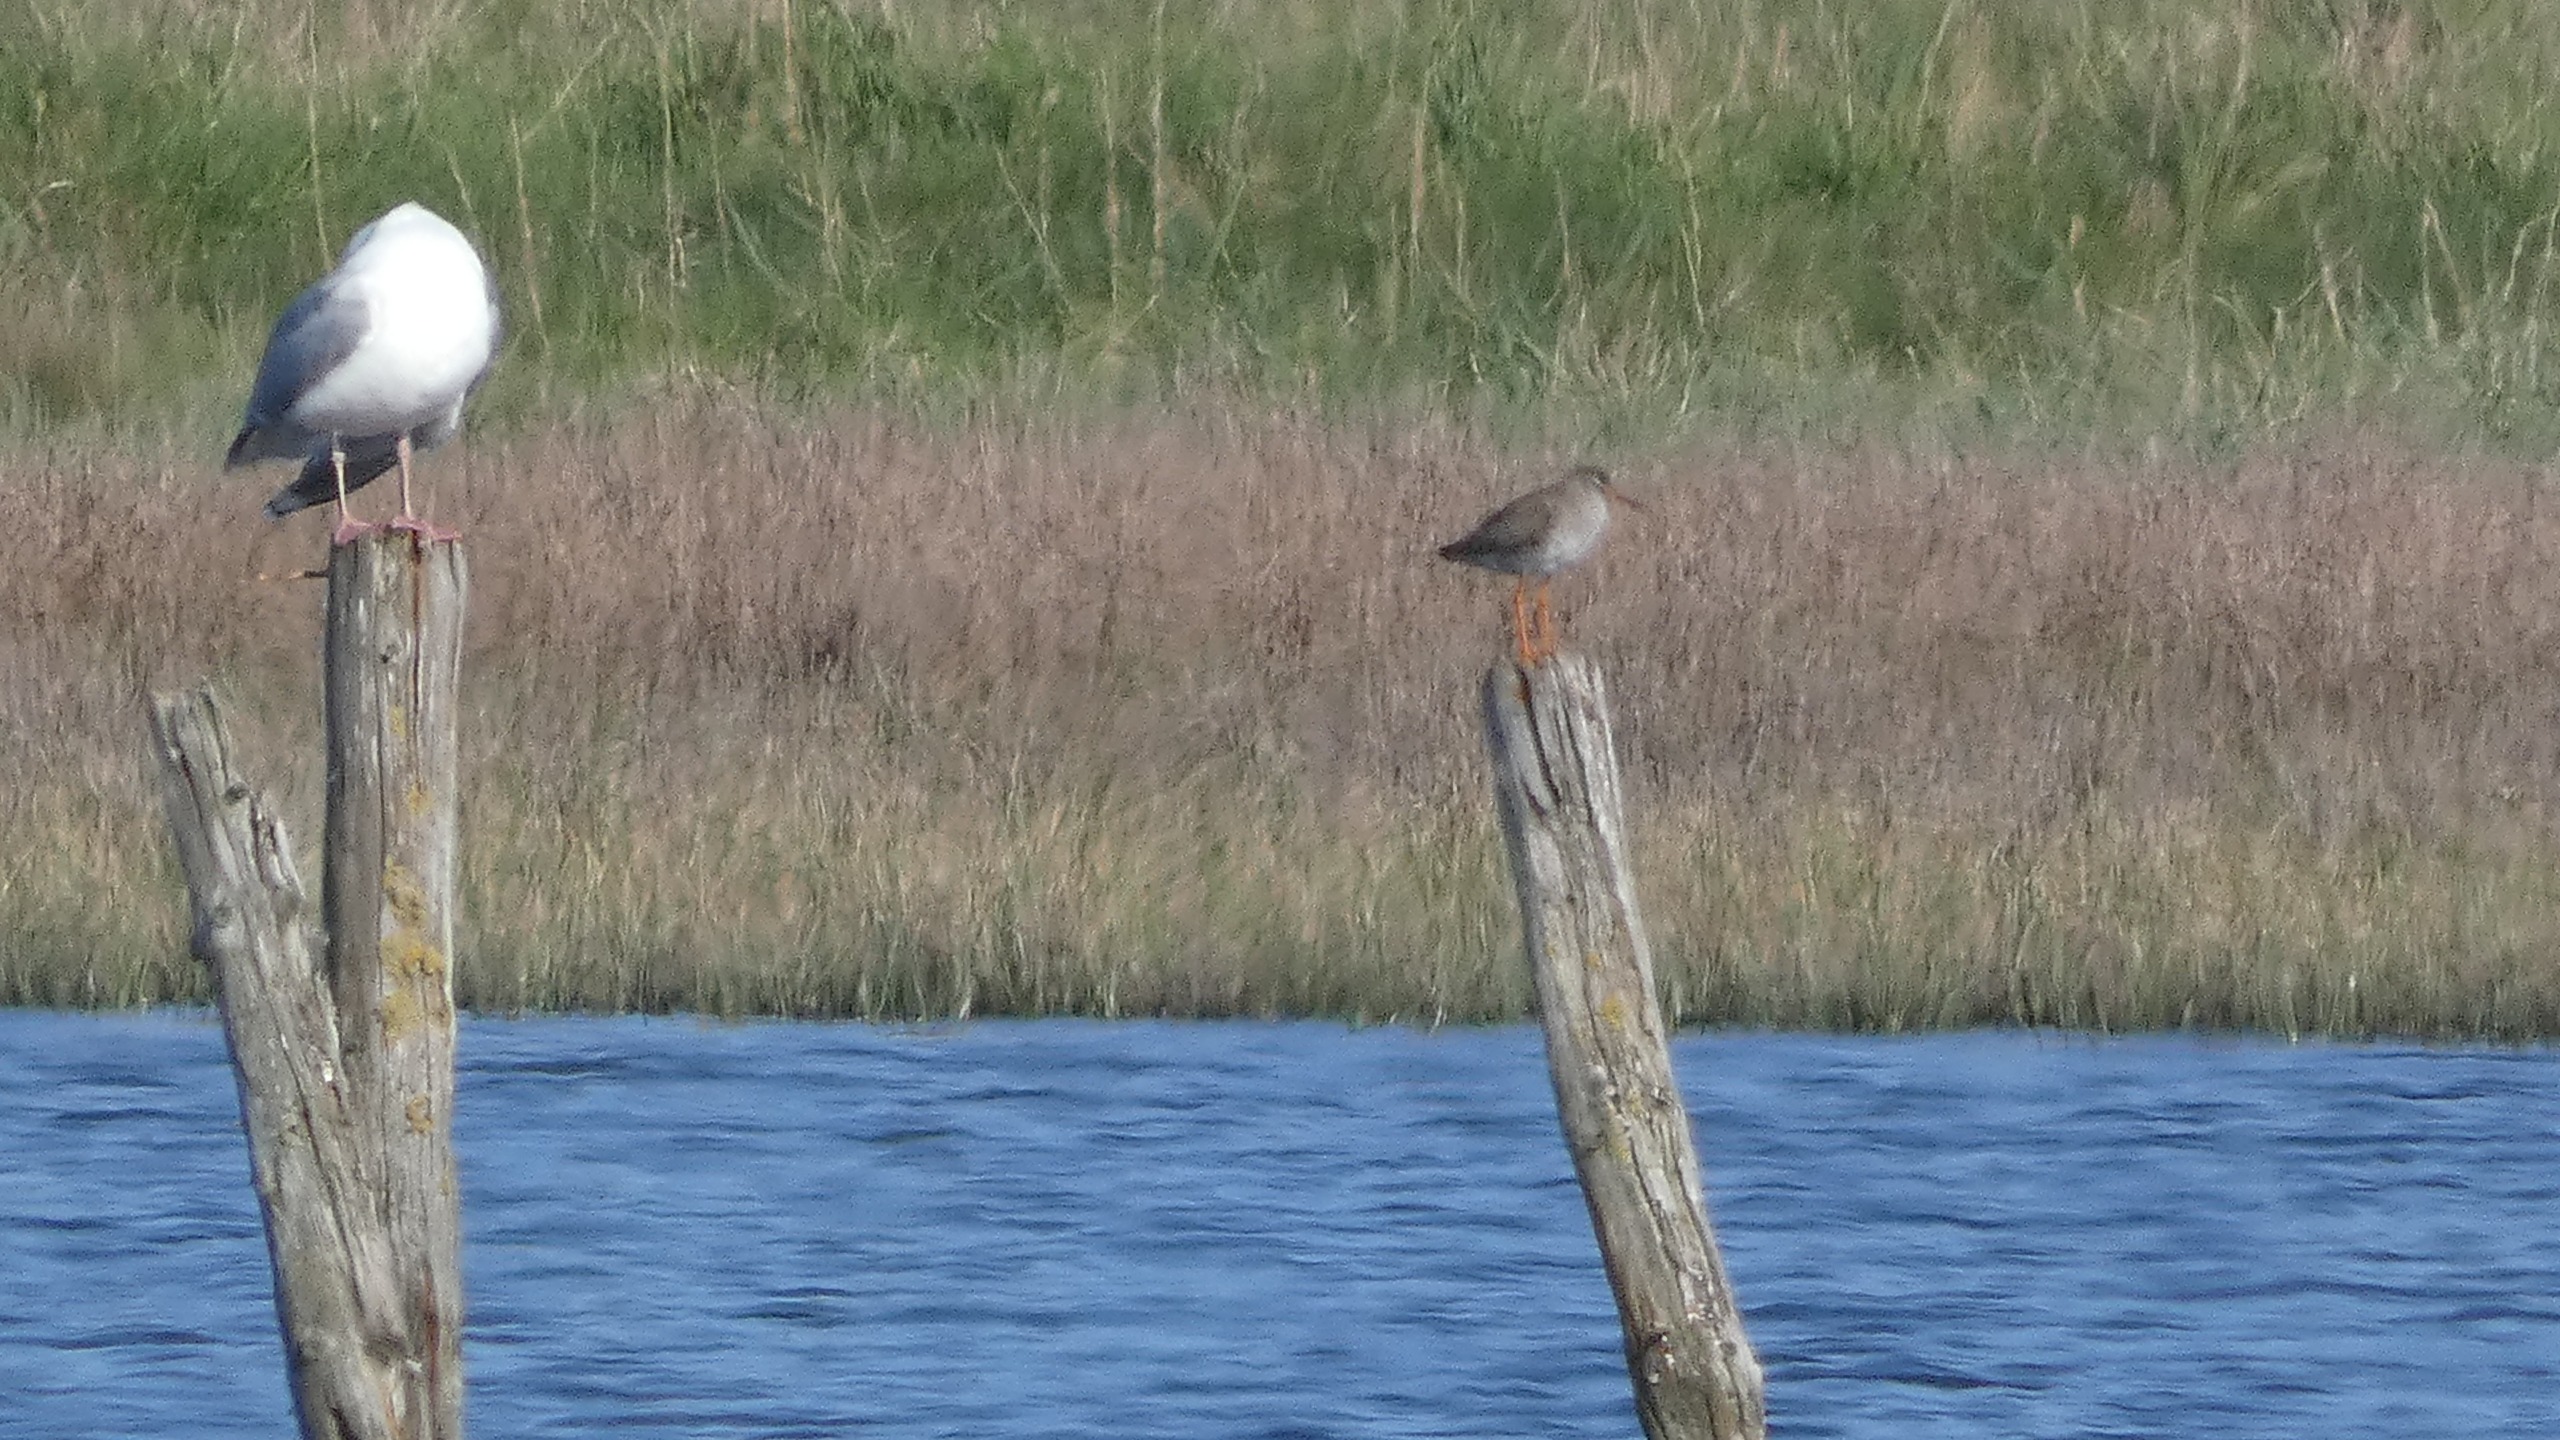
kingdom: Animalia
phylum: Chordata
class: Aves
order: Charadriiformes
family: Scolopacidae
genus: Tringa
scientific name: Tringa totanus
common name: Rødben
